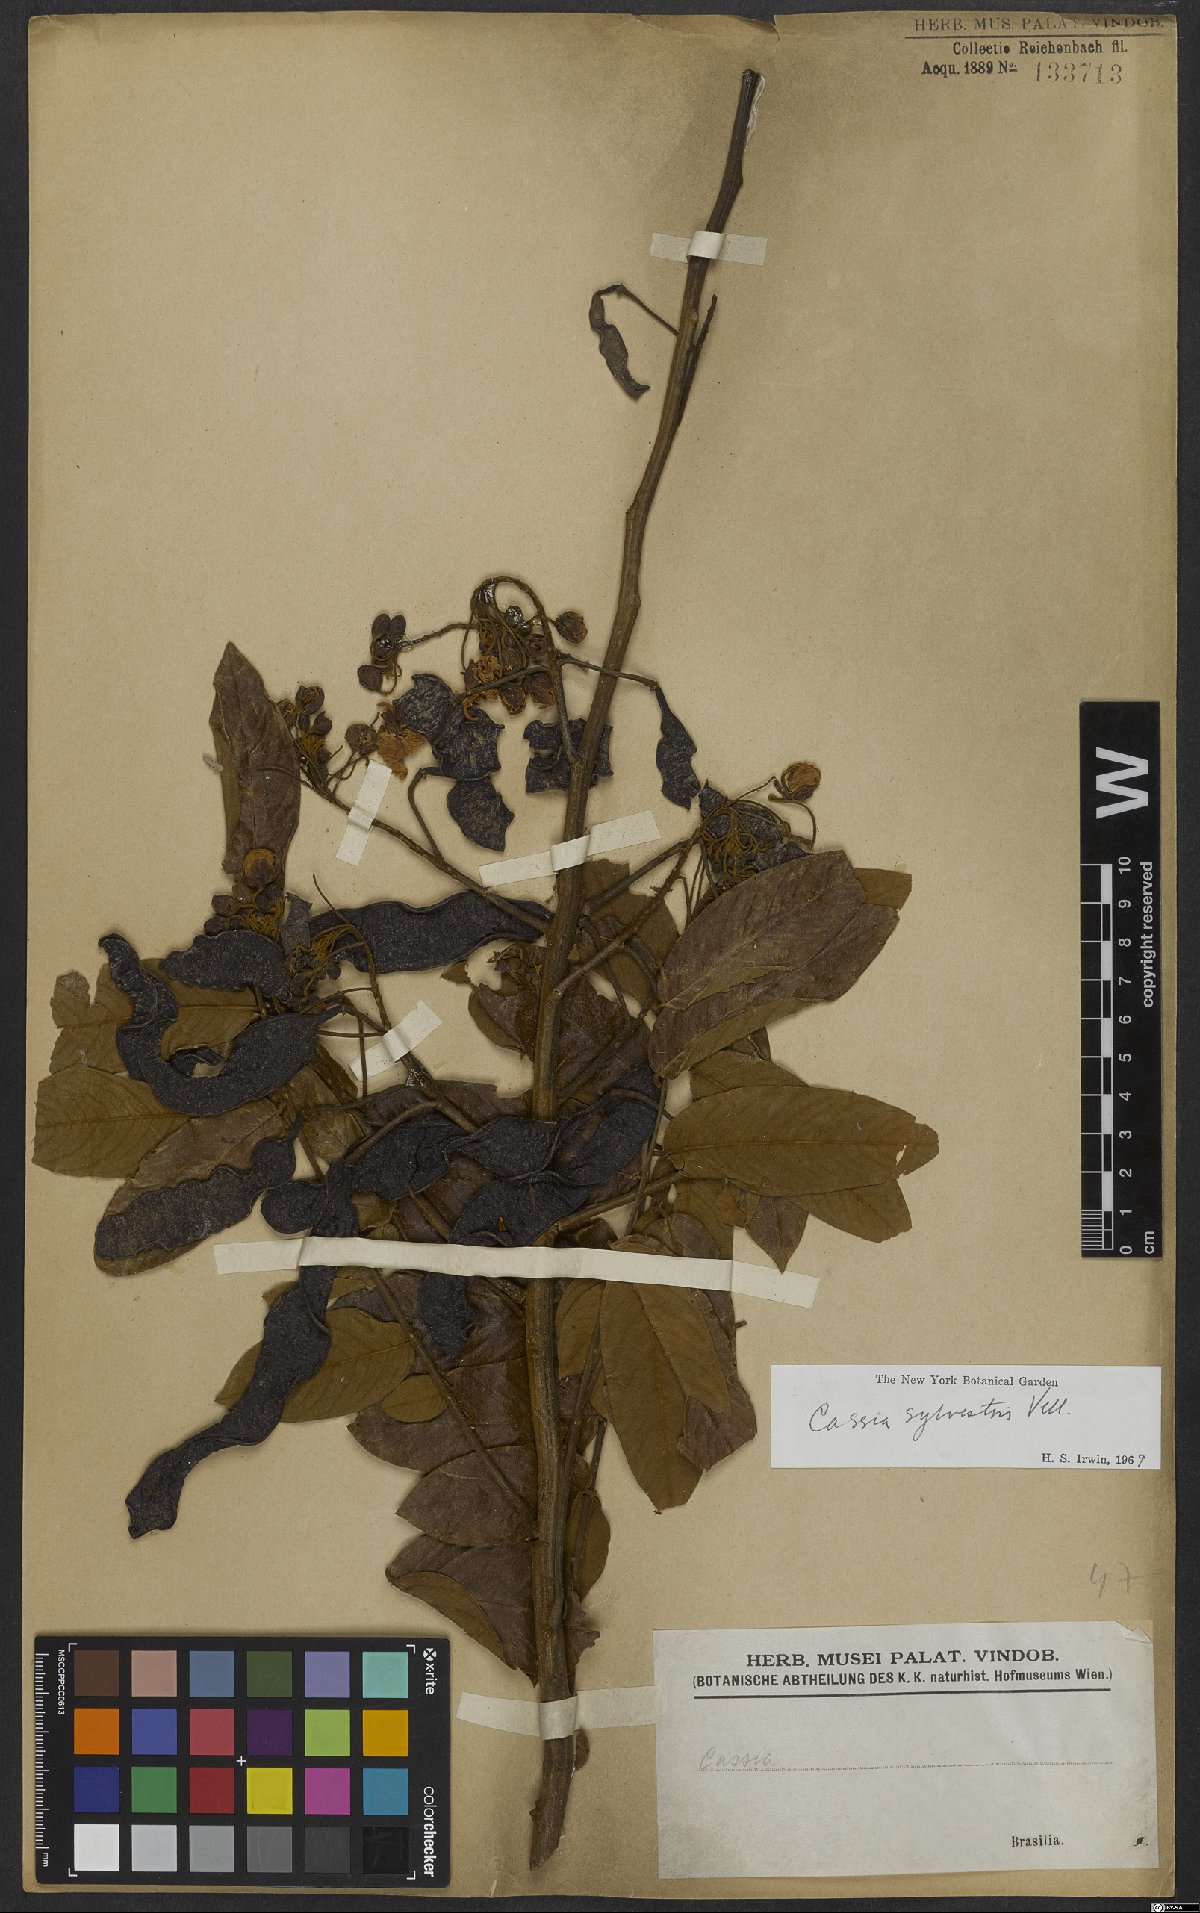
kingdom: Plantae
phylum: Tracheophyta
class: Magnoliopsida
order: Fabales
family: Fabaceae
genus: Senna
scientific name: Senna silvestris
